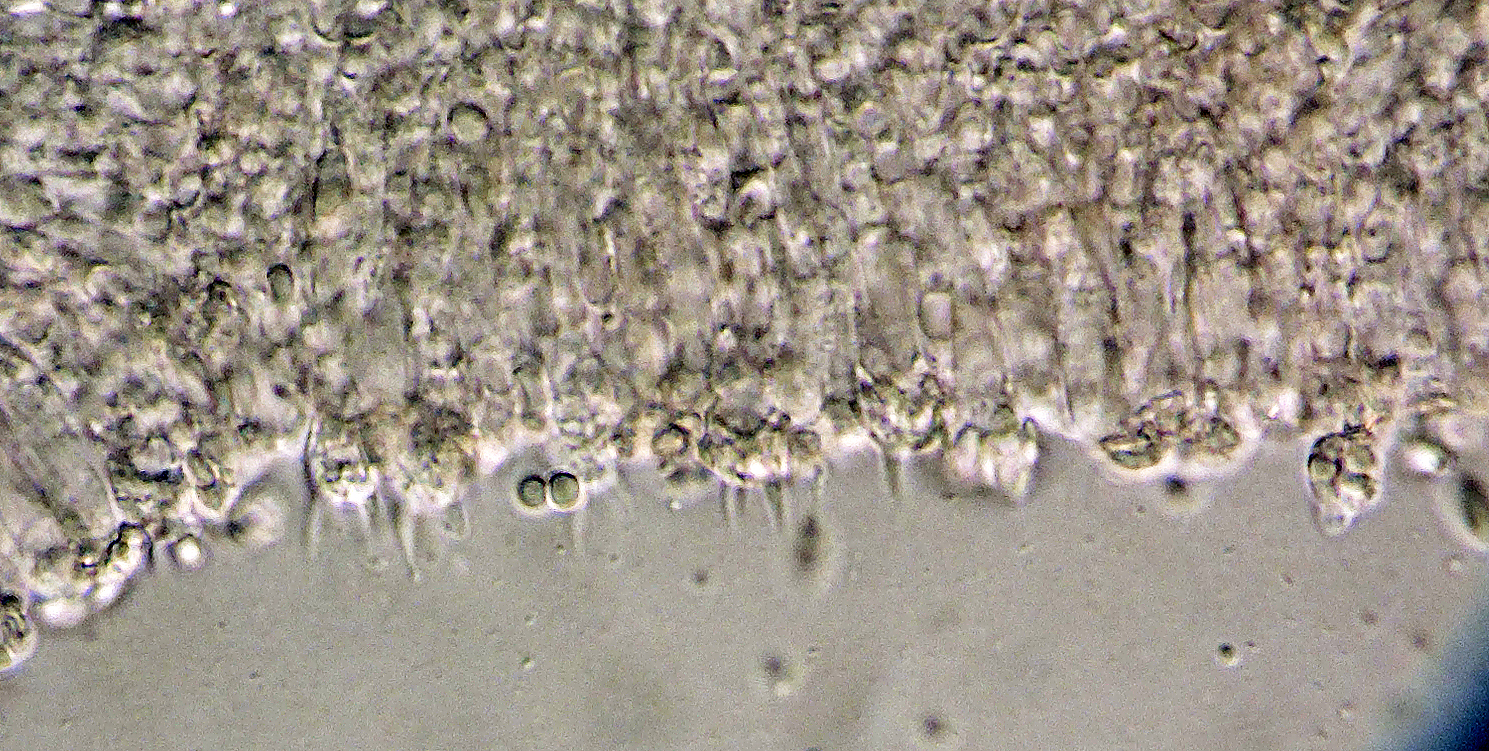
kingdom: Fungi
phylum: Basidiomycota
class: Agaricomycetes
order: Agaricales
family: Mycenaceae
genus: Hemimycena
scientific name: Hemimycena mauretanica
